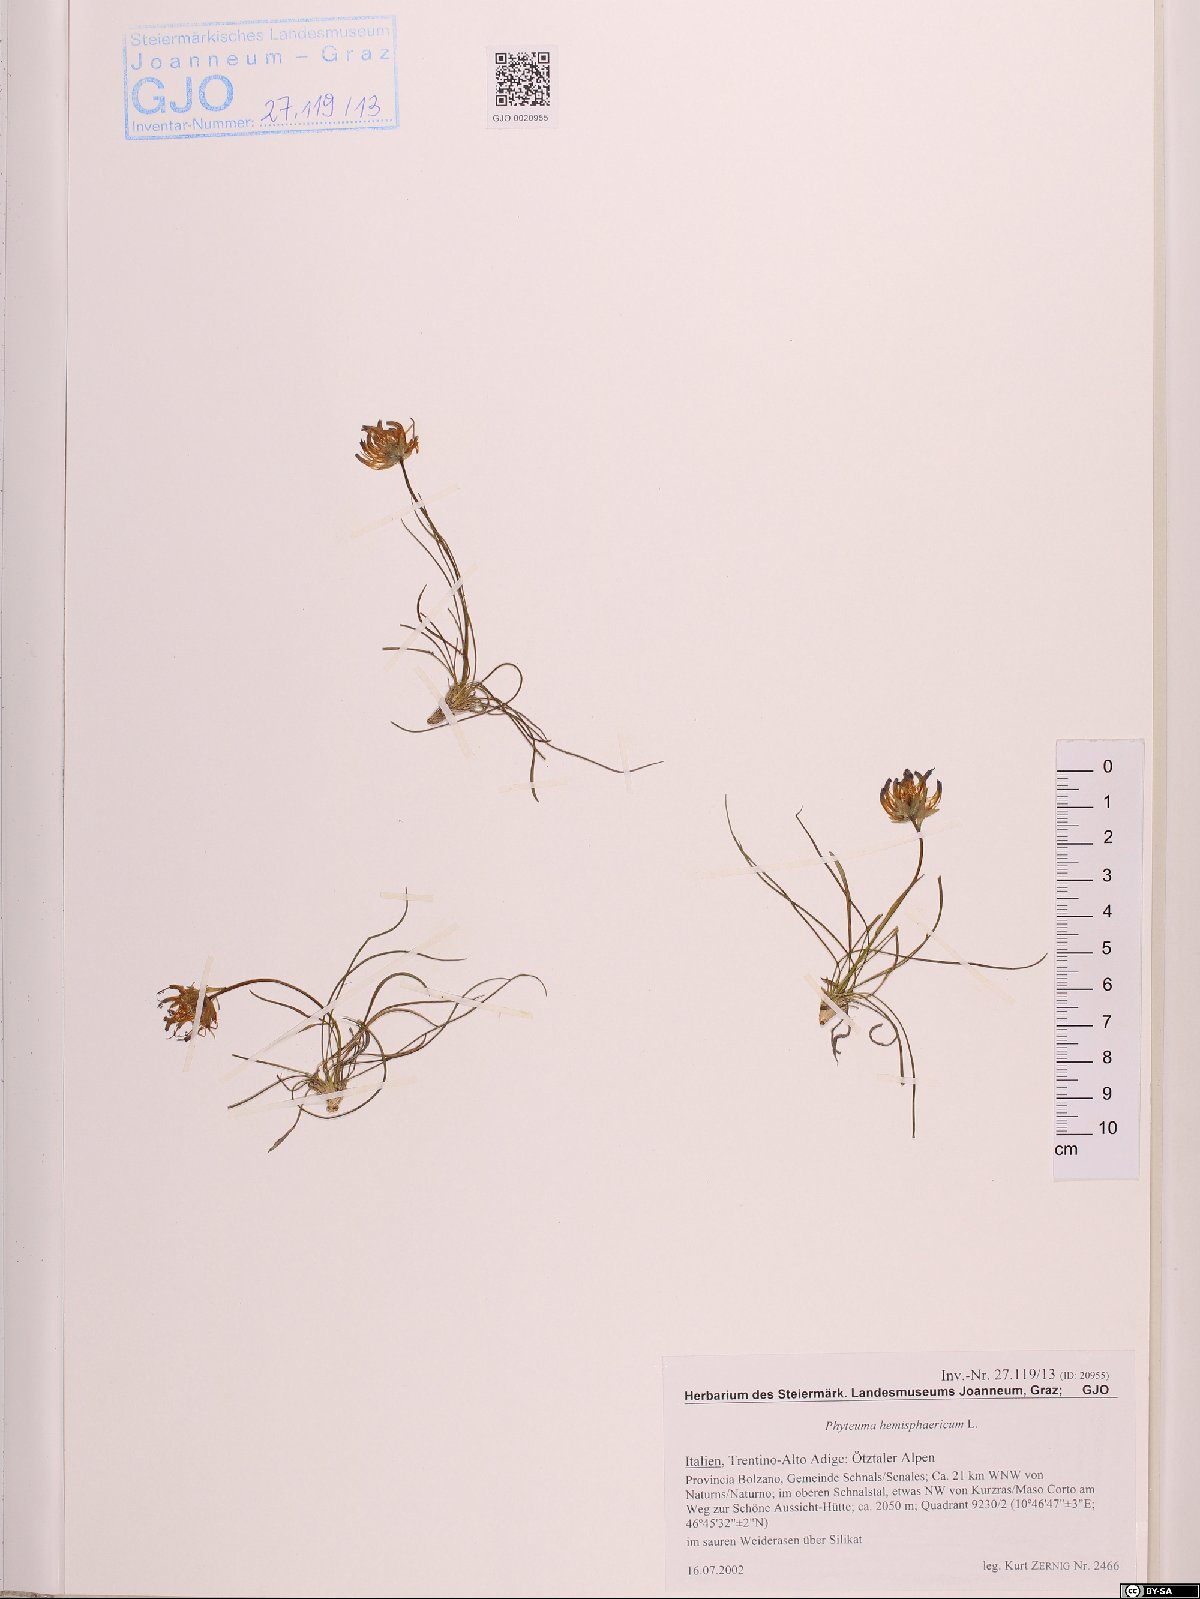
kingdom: Plantae
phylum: Tracheophyta
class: Magnoliopsida
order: Asterales
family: Campanulaceae
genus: Phyteuma
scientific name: Phyteuma hemisphaericum
